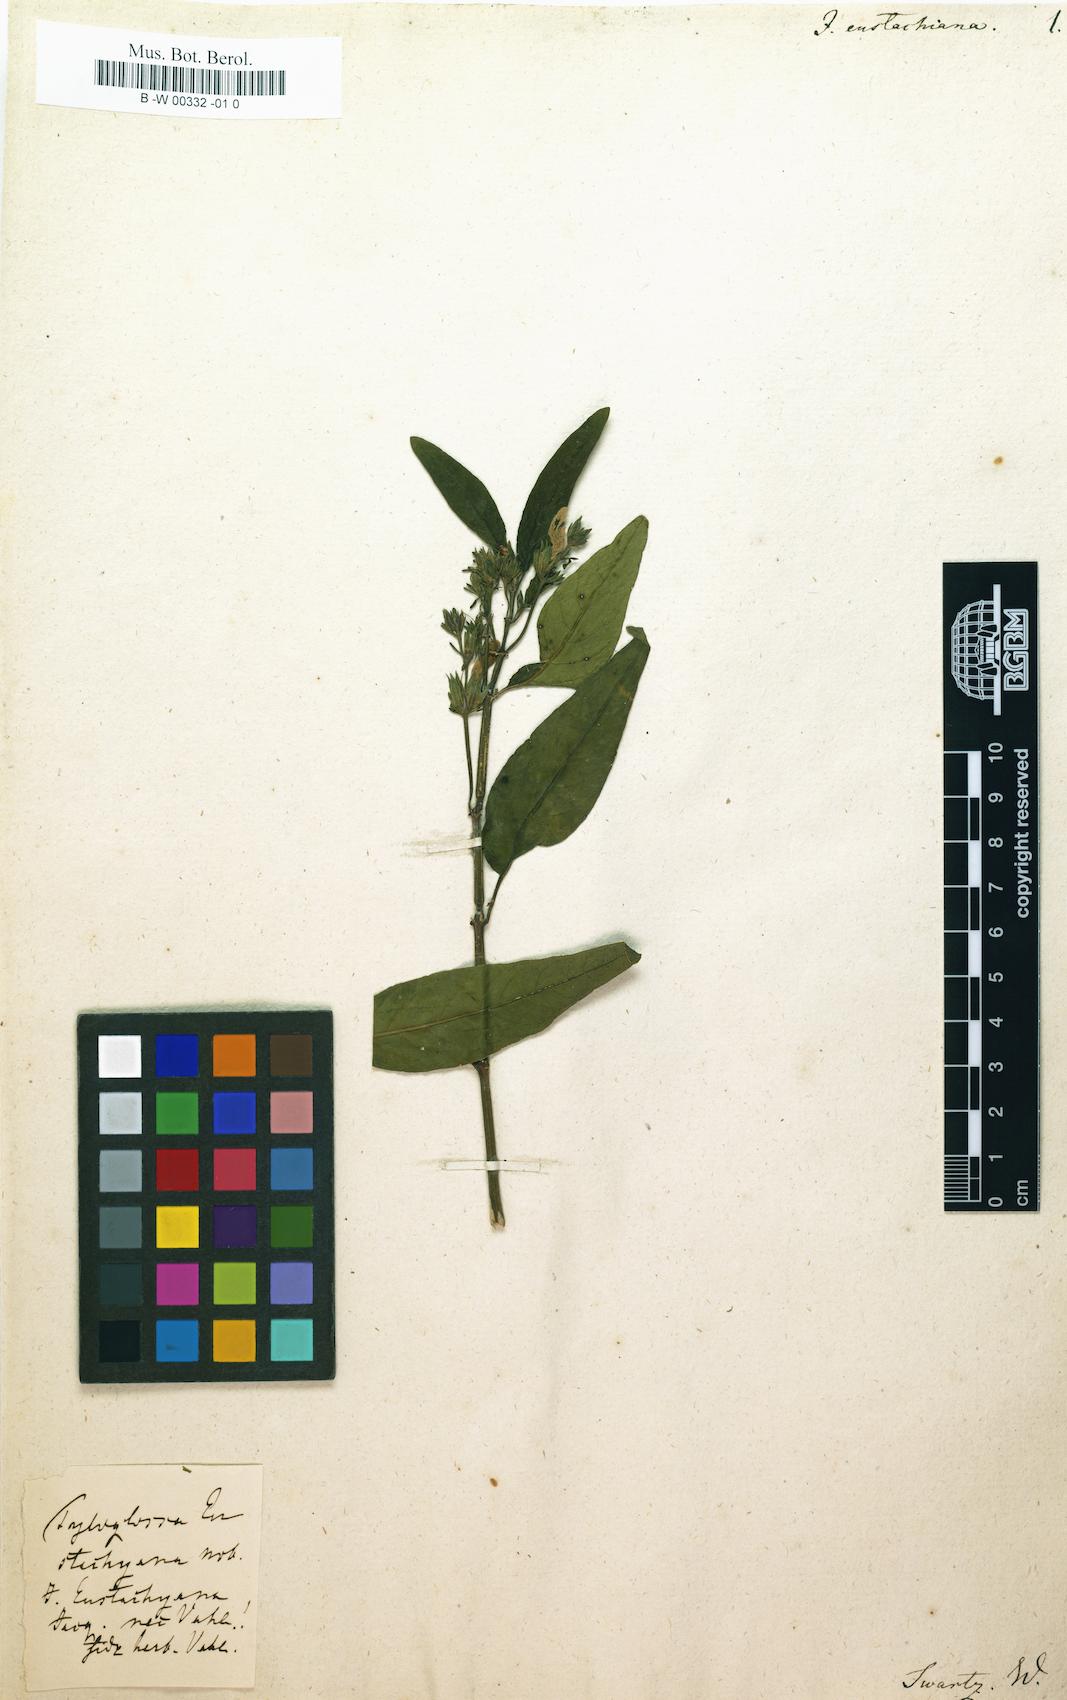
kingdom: Plantae
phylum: Tracheophyta
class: Magnoliopsida
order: Lamiales
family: Acanthaceae
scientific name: Acanthaceae
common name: Acanthaceae
